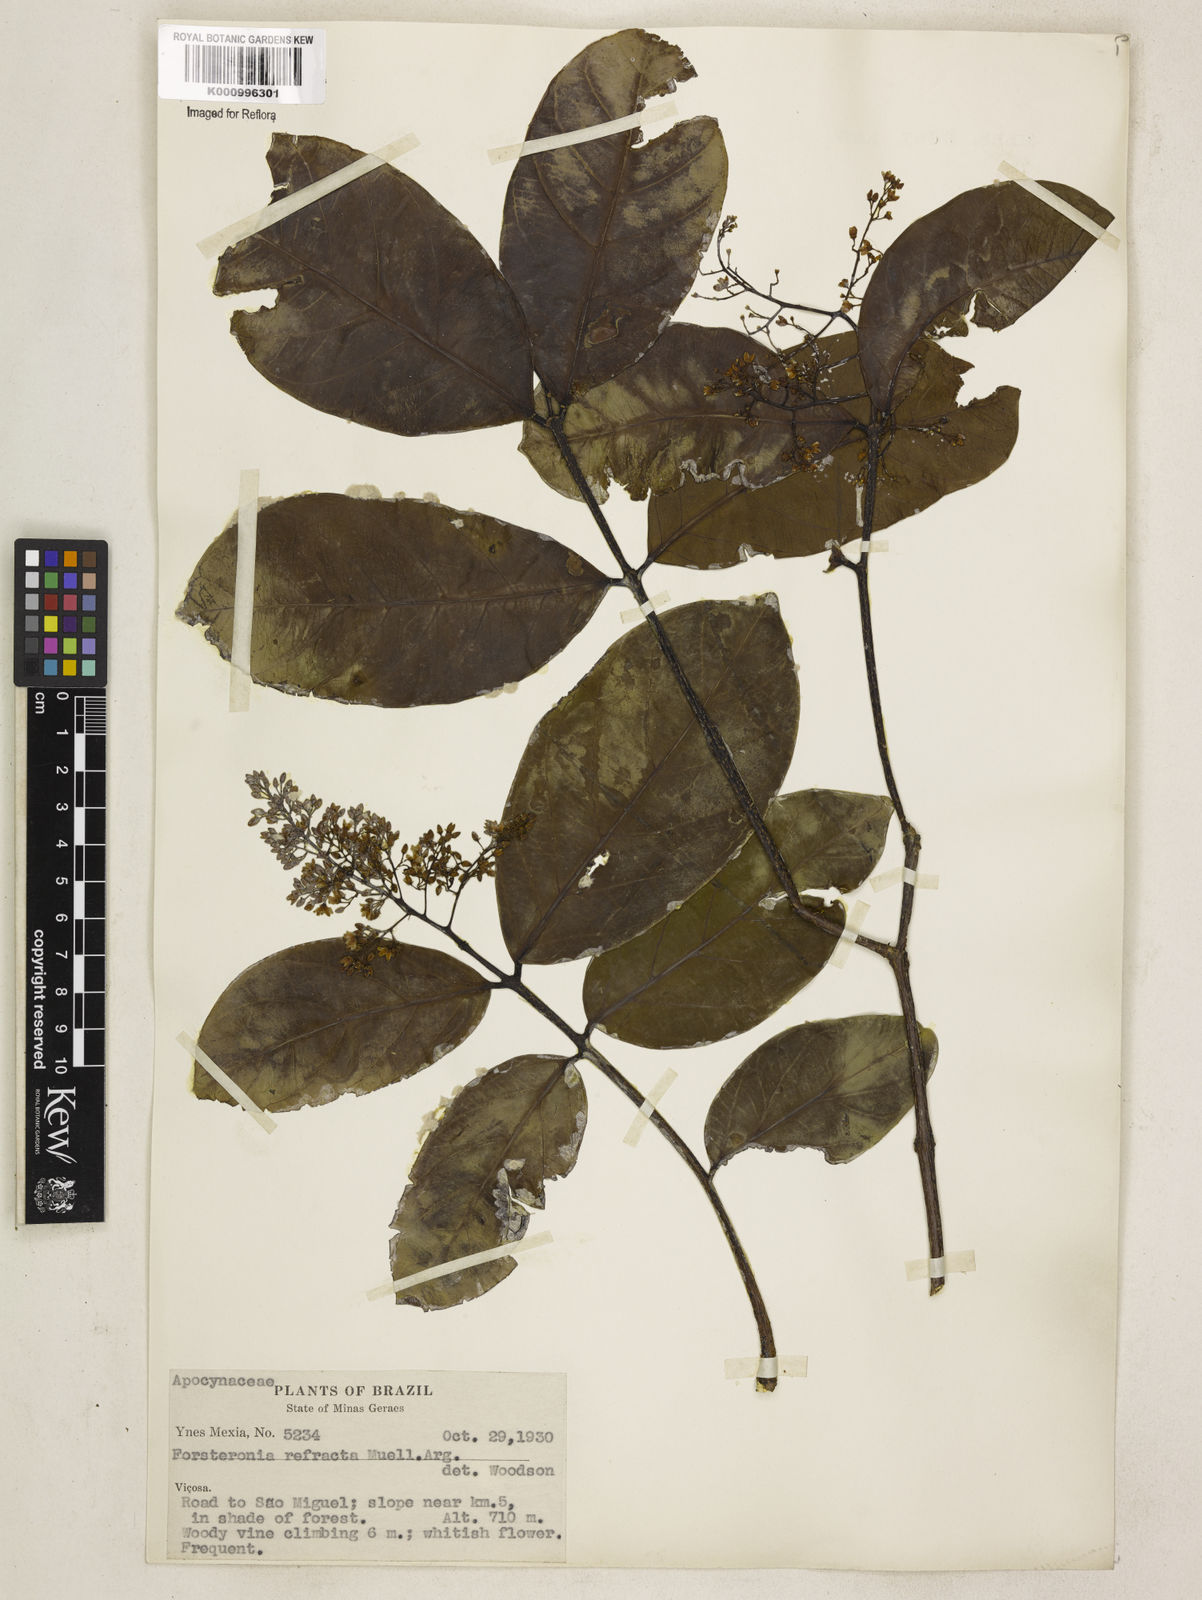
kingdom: Plantae
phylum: Tracheophyta
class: Magnoliopsida
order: Gentianales
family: Apocynaceae
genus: Forsteronia
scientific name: Forsteronia
